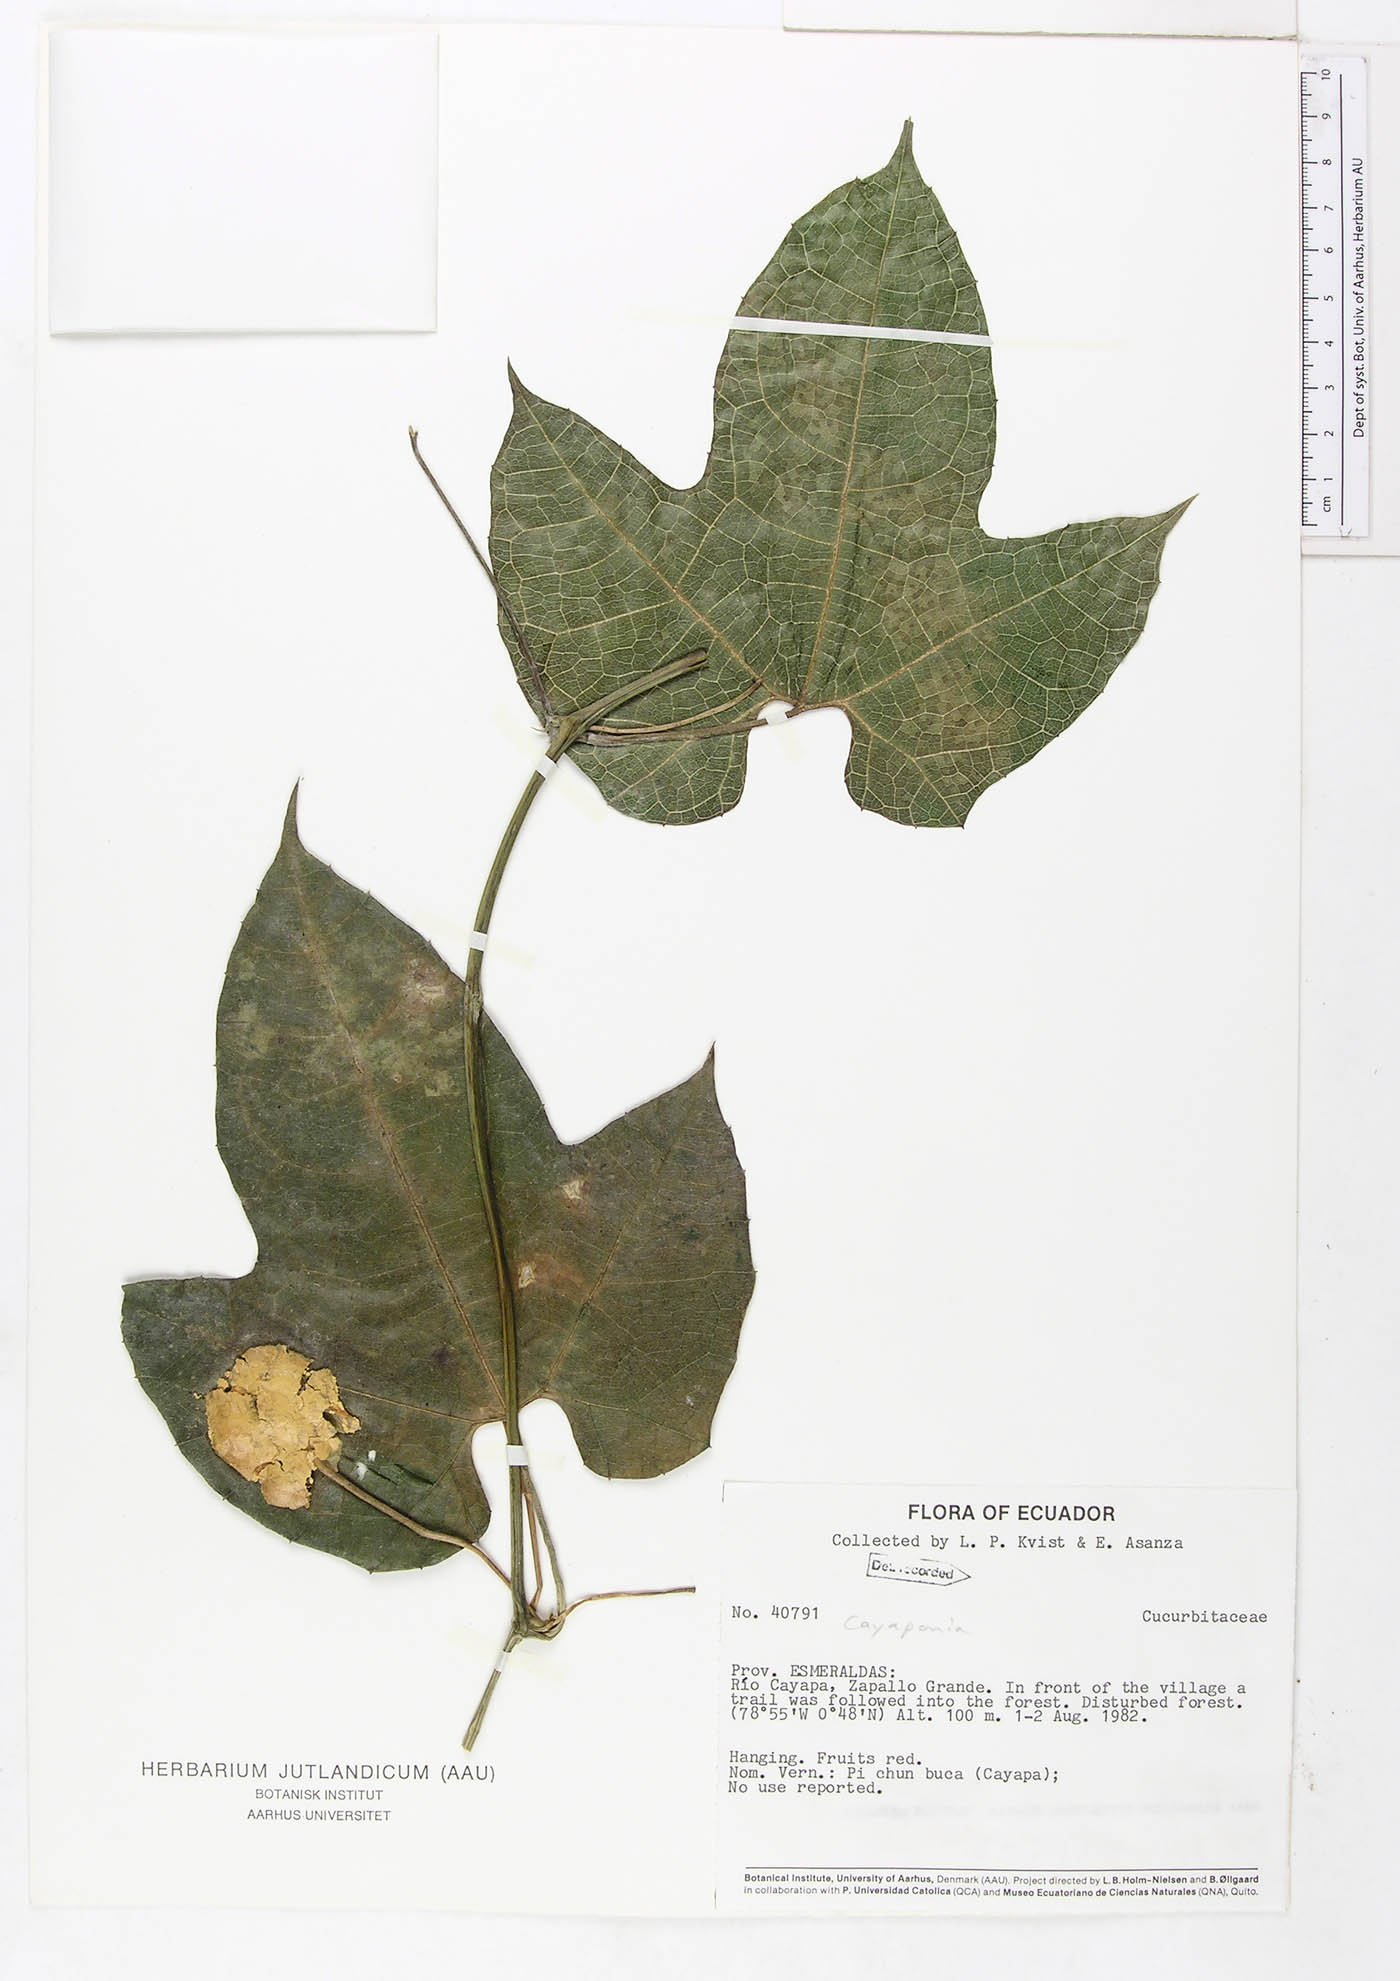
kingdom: Plantae
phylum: Tracheophyta
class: Magnoliopsida
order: Cucurbitales
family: Cucurbitaceae
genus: Cayaponia
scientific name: Cayaponia prunifera
